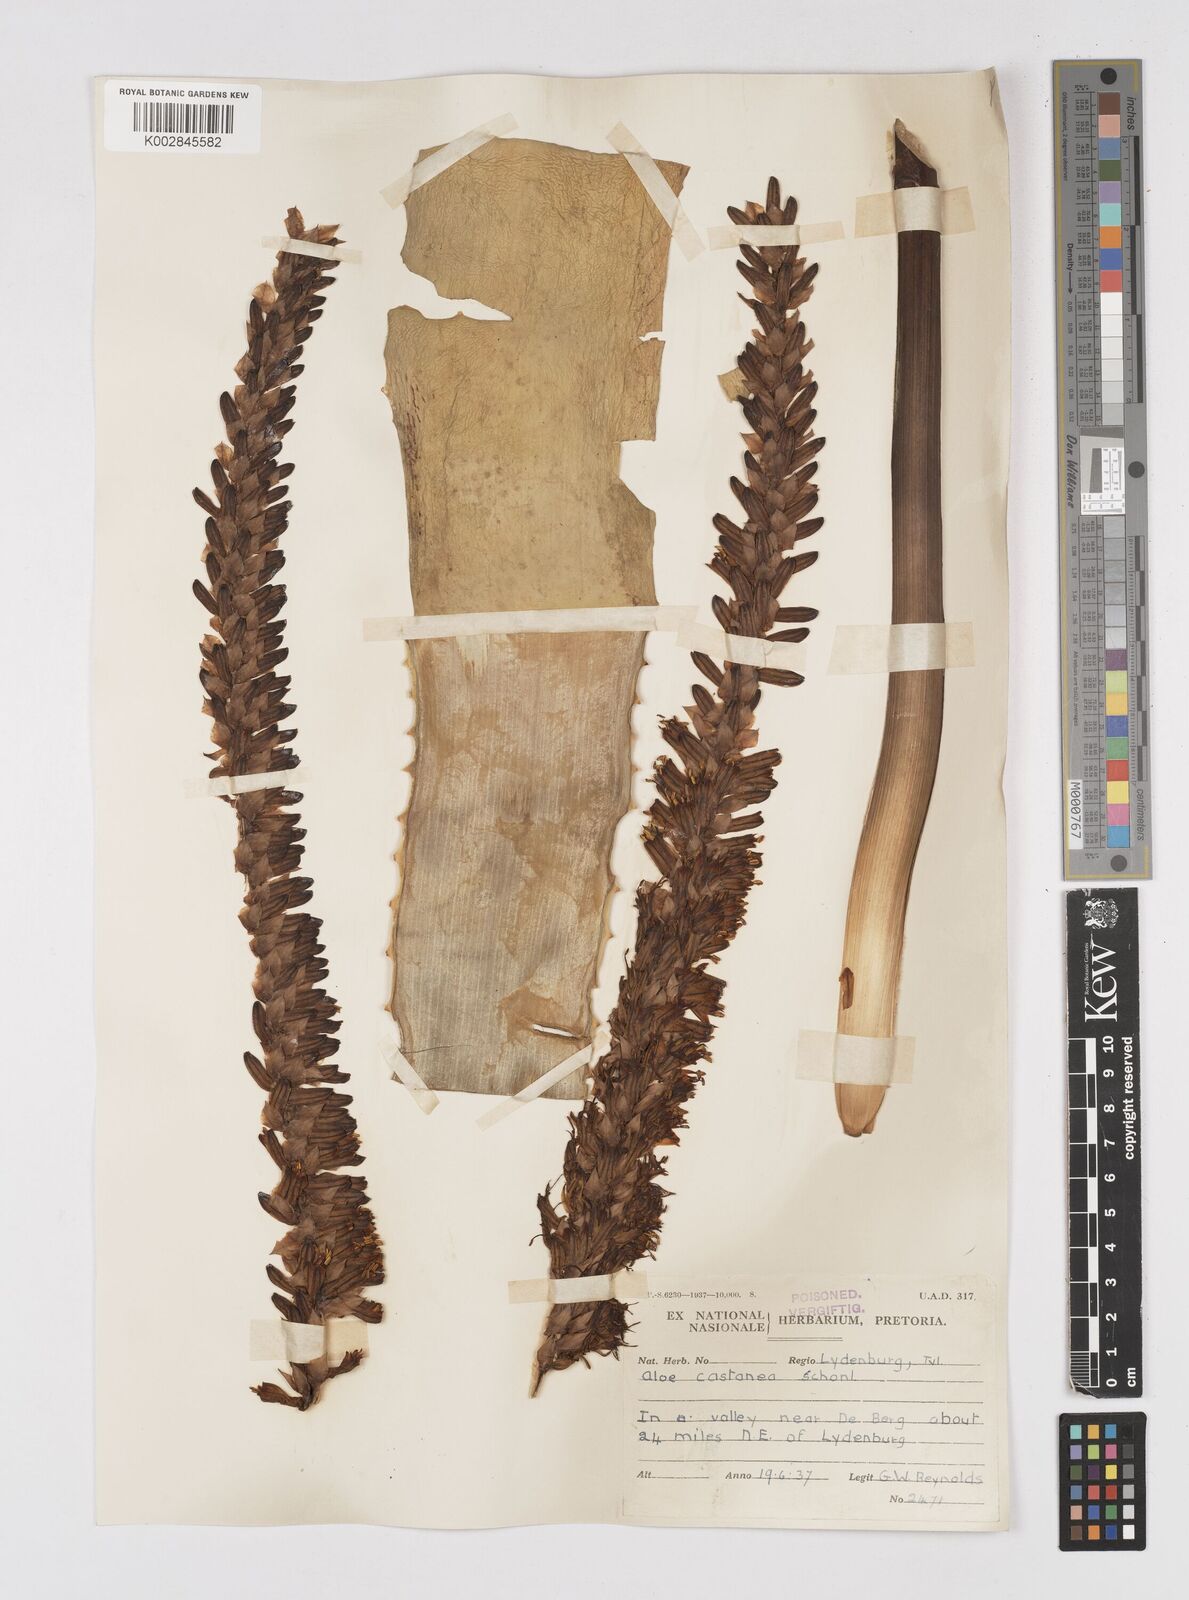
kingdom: Plantae
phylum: Tracheophyta
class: Liliopsida
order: Asparagales
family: Asphodelaceae
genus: Aloe
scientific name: Aloe castanea
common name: Cat's-tail aloe
